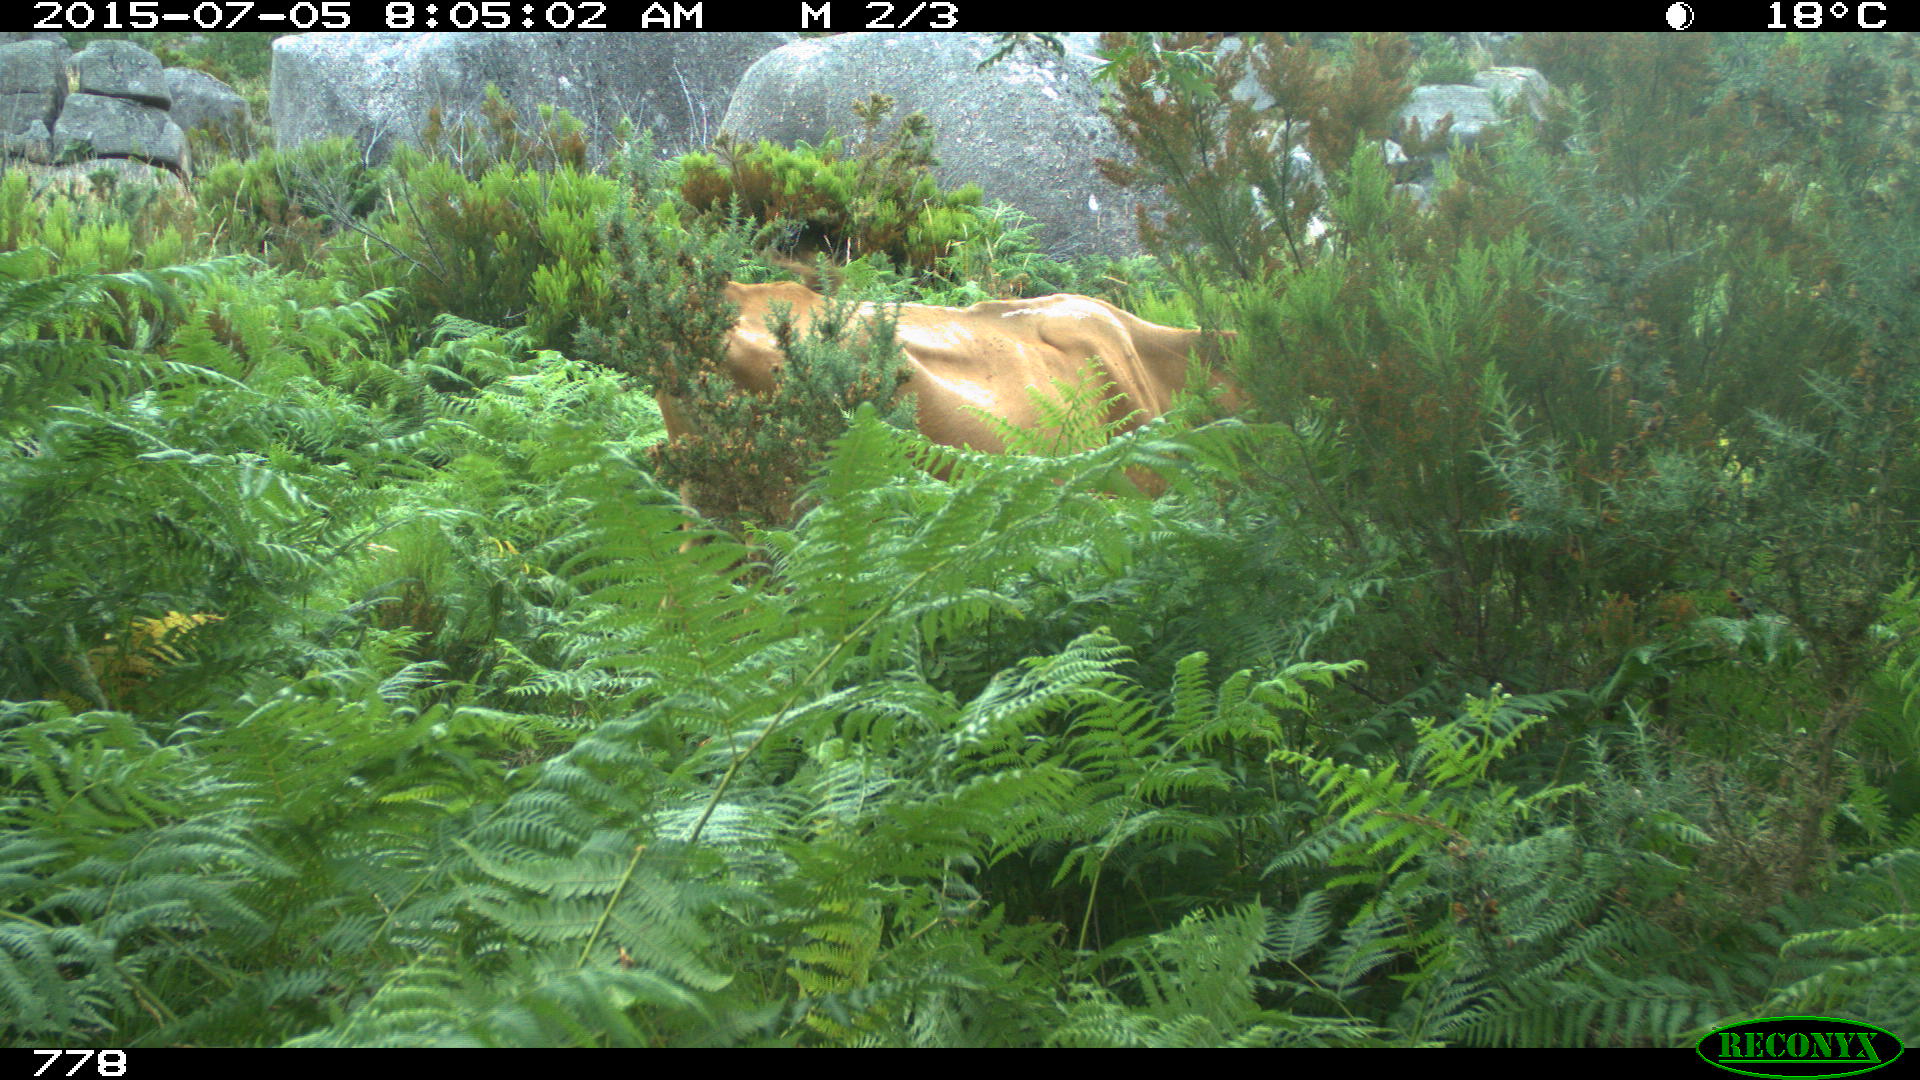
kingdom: Animalia
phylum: Chordata
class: Mammalia
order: Artiodactyla
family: Bovidae
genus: Bos
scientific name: Bos taurus
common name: Domesticated cattle
